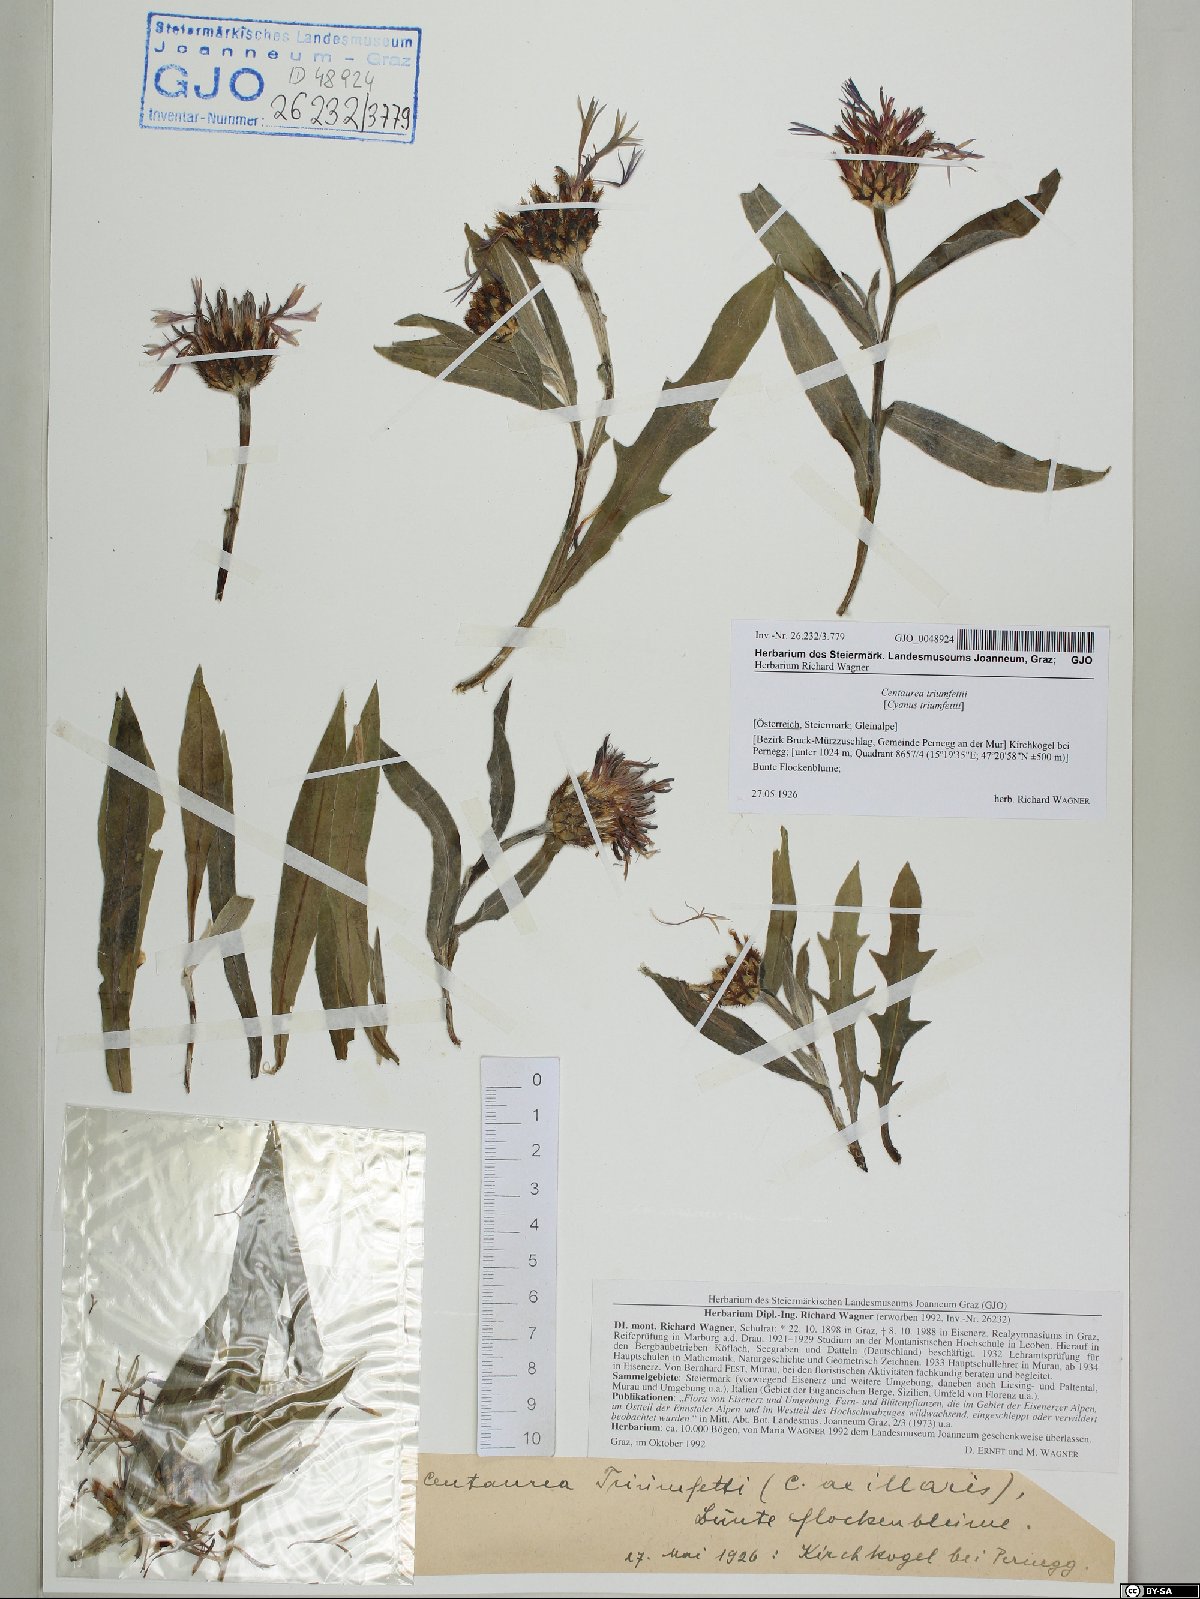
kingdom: Plantae
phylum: Tracheophyta
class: Magnoliopsida
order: Asterales
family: Asteraceae
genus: Centaurea
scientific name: Centaurea triumfettii
